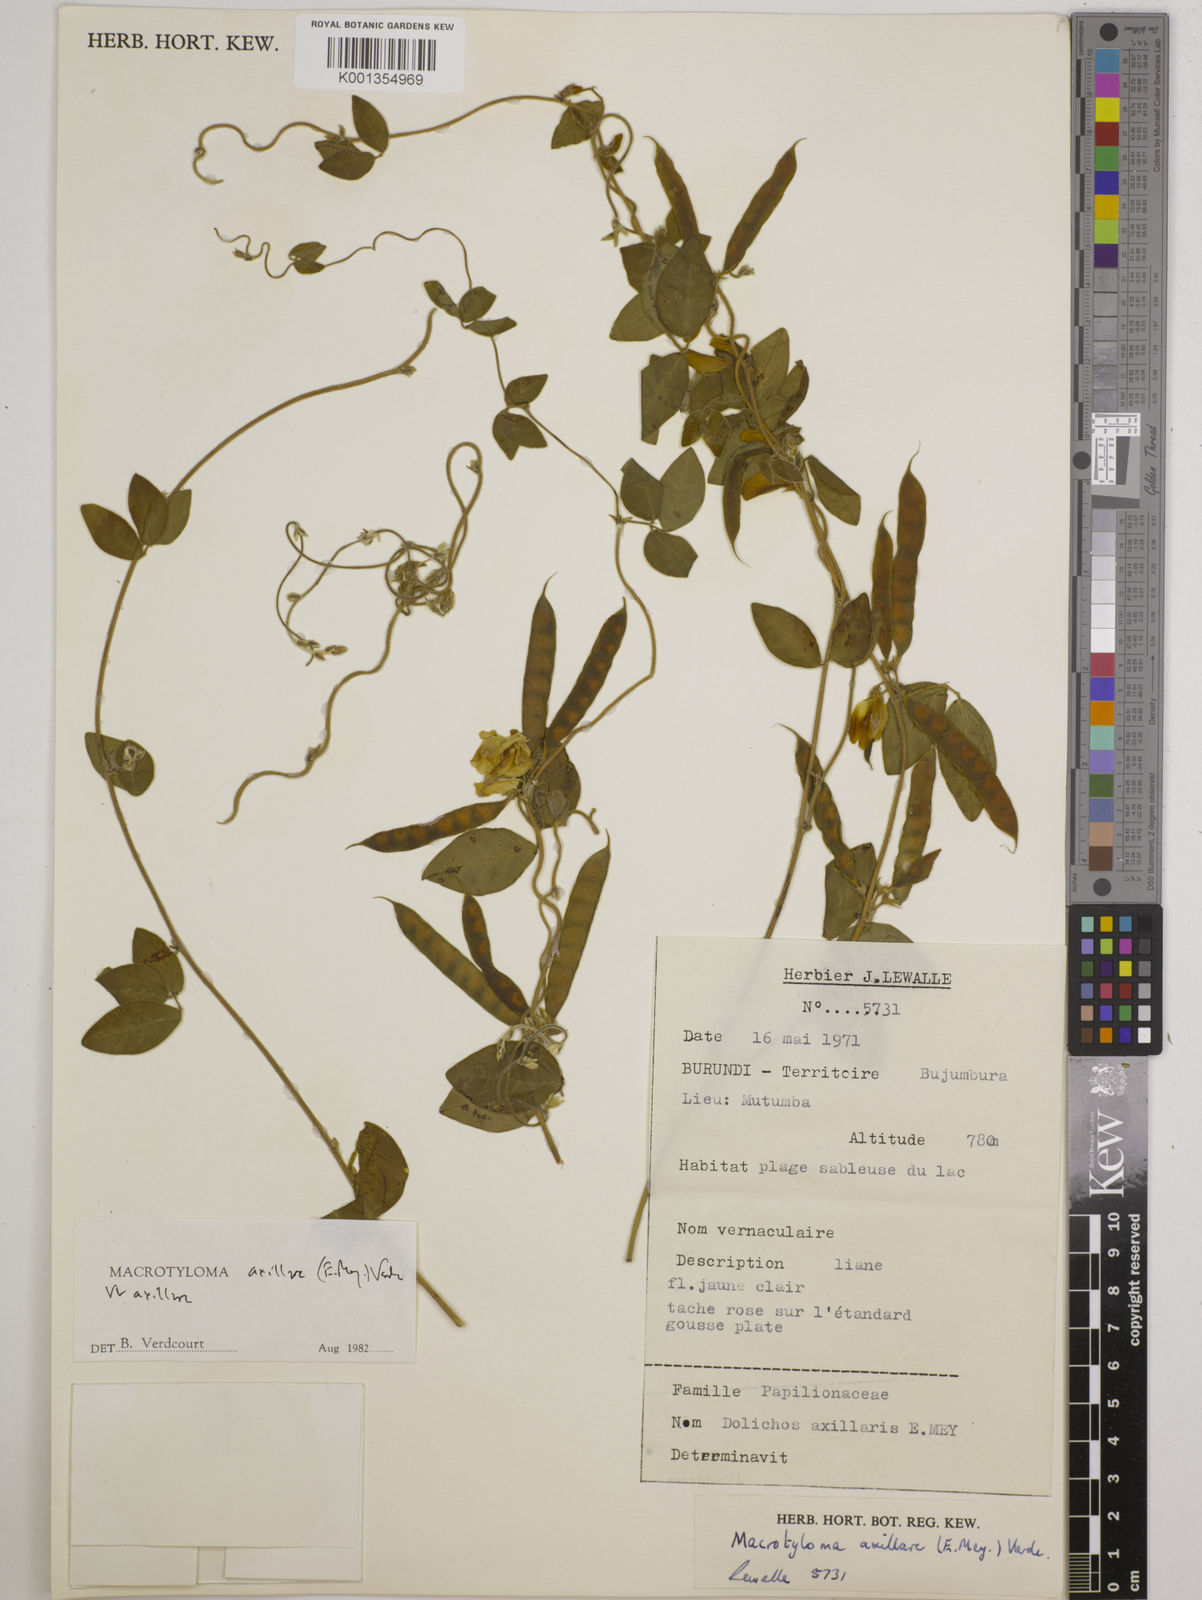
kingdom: Plantae
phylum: Tracheophyta
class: Magnoliopsida
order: Fabales
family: Fabaceae
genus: Macrotyloma
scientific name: Macrotyloma axillare
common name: Perennial horsegram
